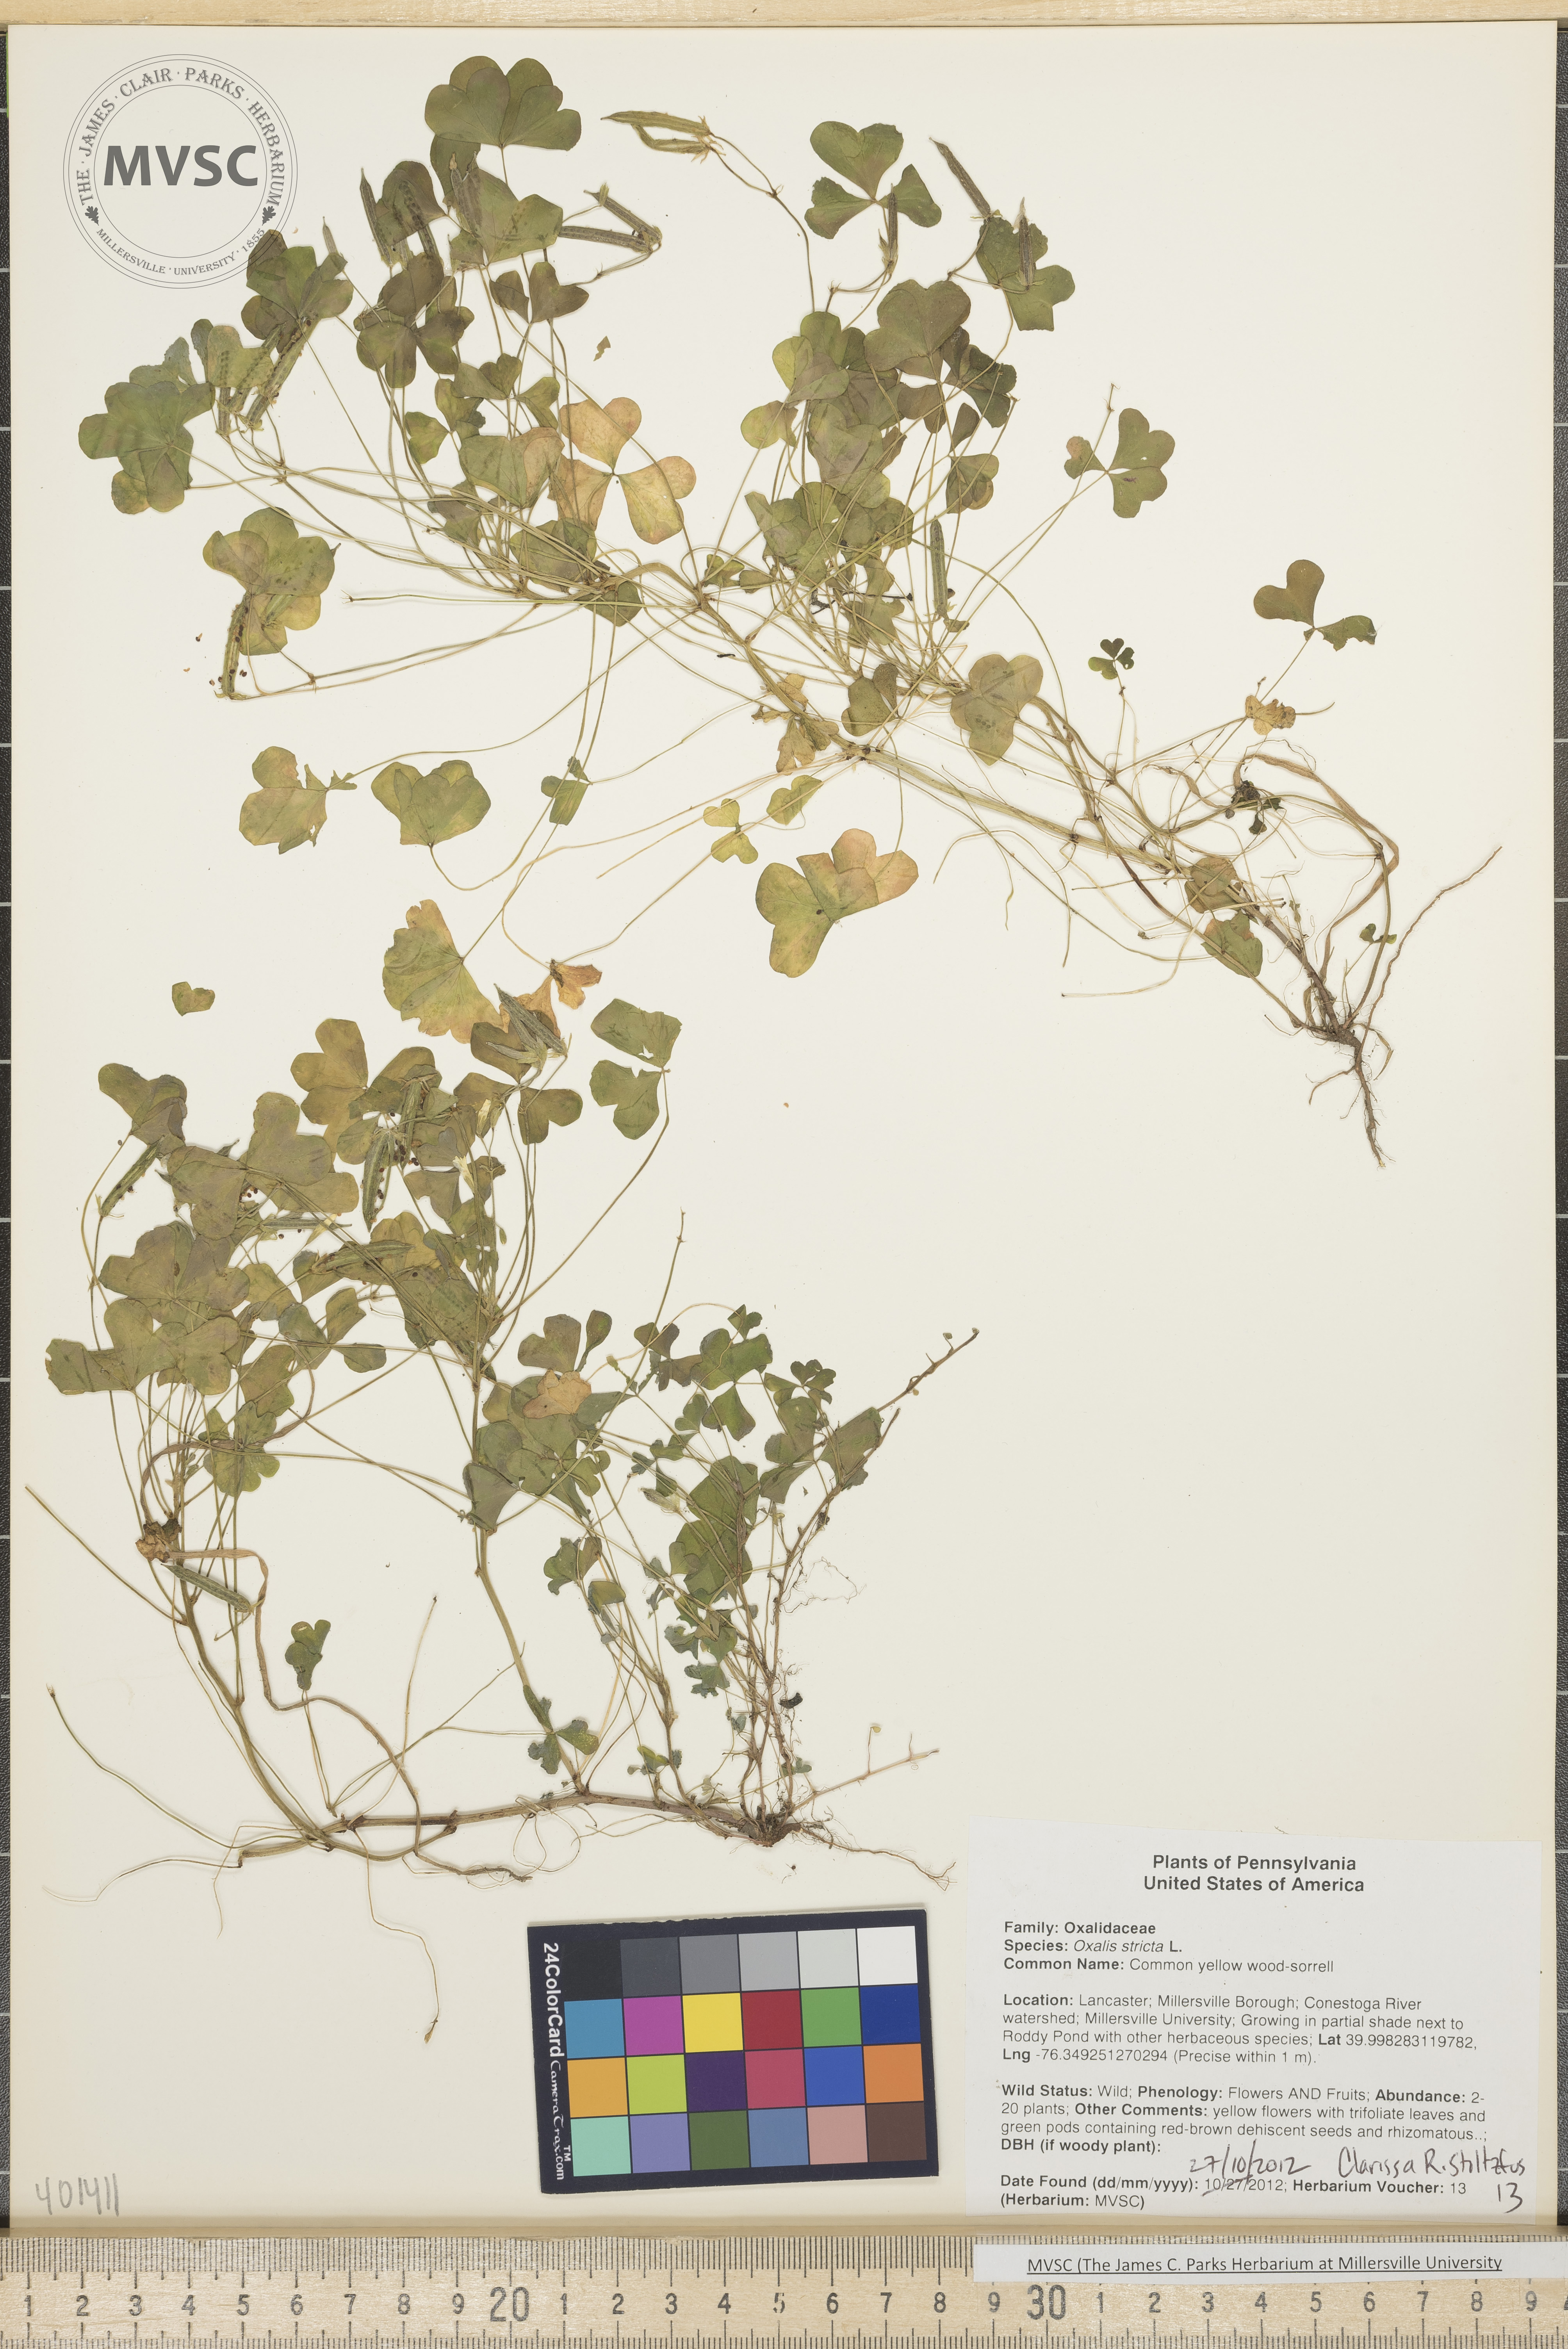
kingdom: Plantae
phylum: Tracheophyta
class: Magnoliopsida
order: Oxalidales
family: Oxalidaceae
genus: Oxalis
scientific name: Oxalis stricta
